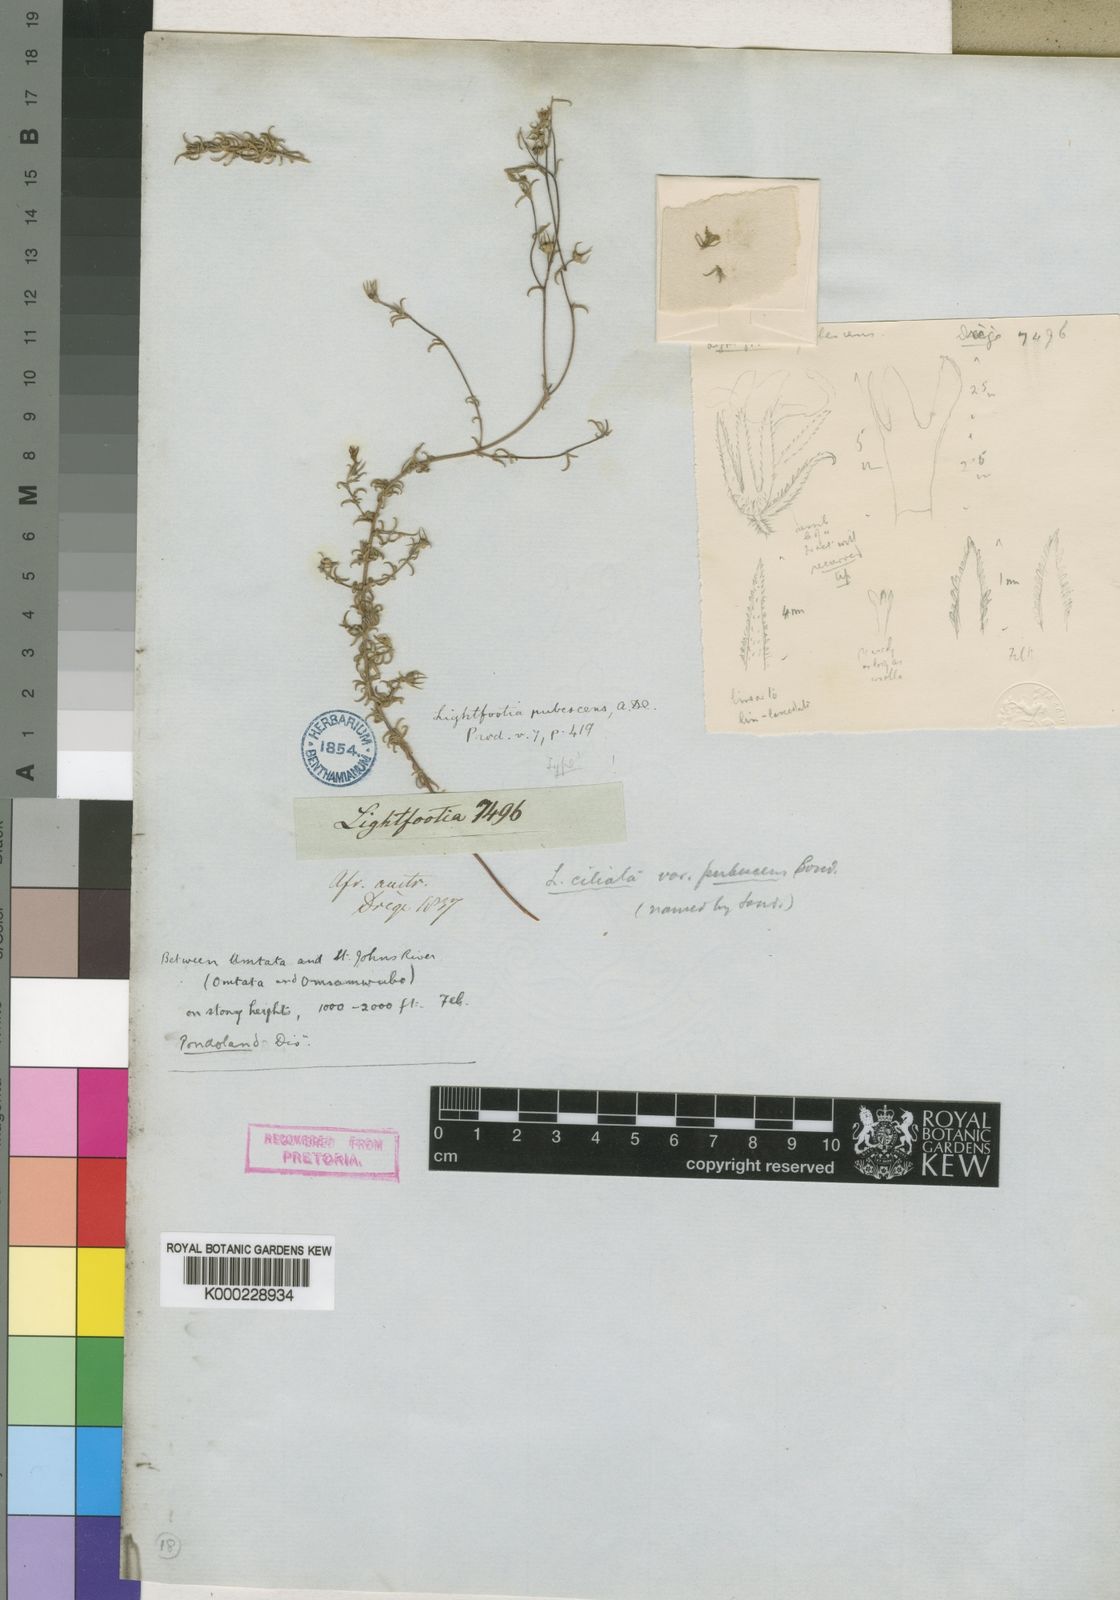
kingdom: Plantae
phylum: Tracheophyta
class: Magnoliopsida
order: Asterales
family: Campanulaceae
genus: Wahlenbergia
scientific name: Wahlenbergia thunbergii
